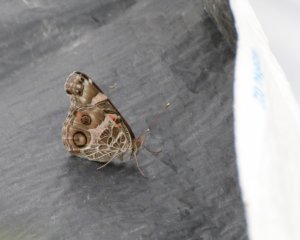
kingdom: Animalia
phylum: Arthropoda
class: Insecta
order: Lepidoptera
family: Nymphalidae
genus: Vanessa
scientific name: Vanessa virginiensis
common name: American Lady
